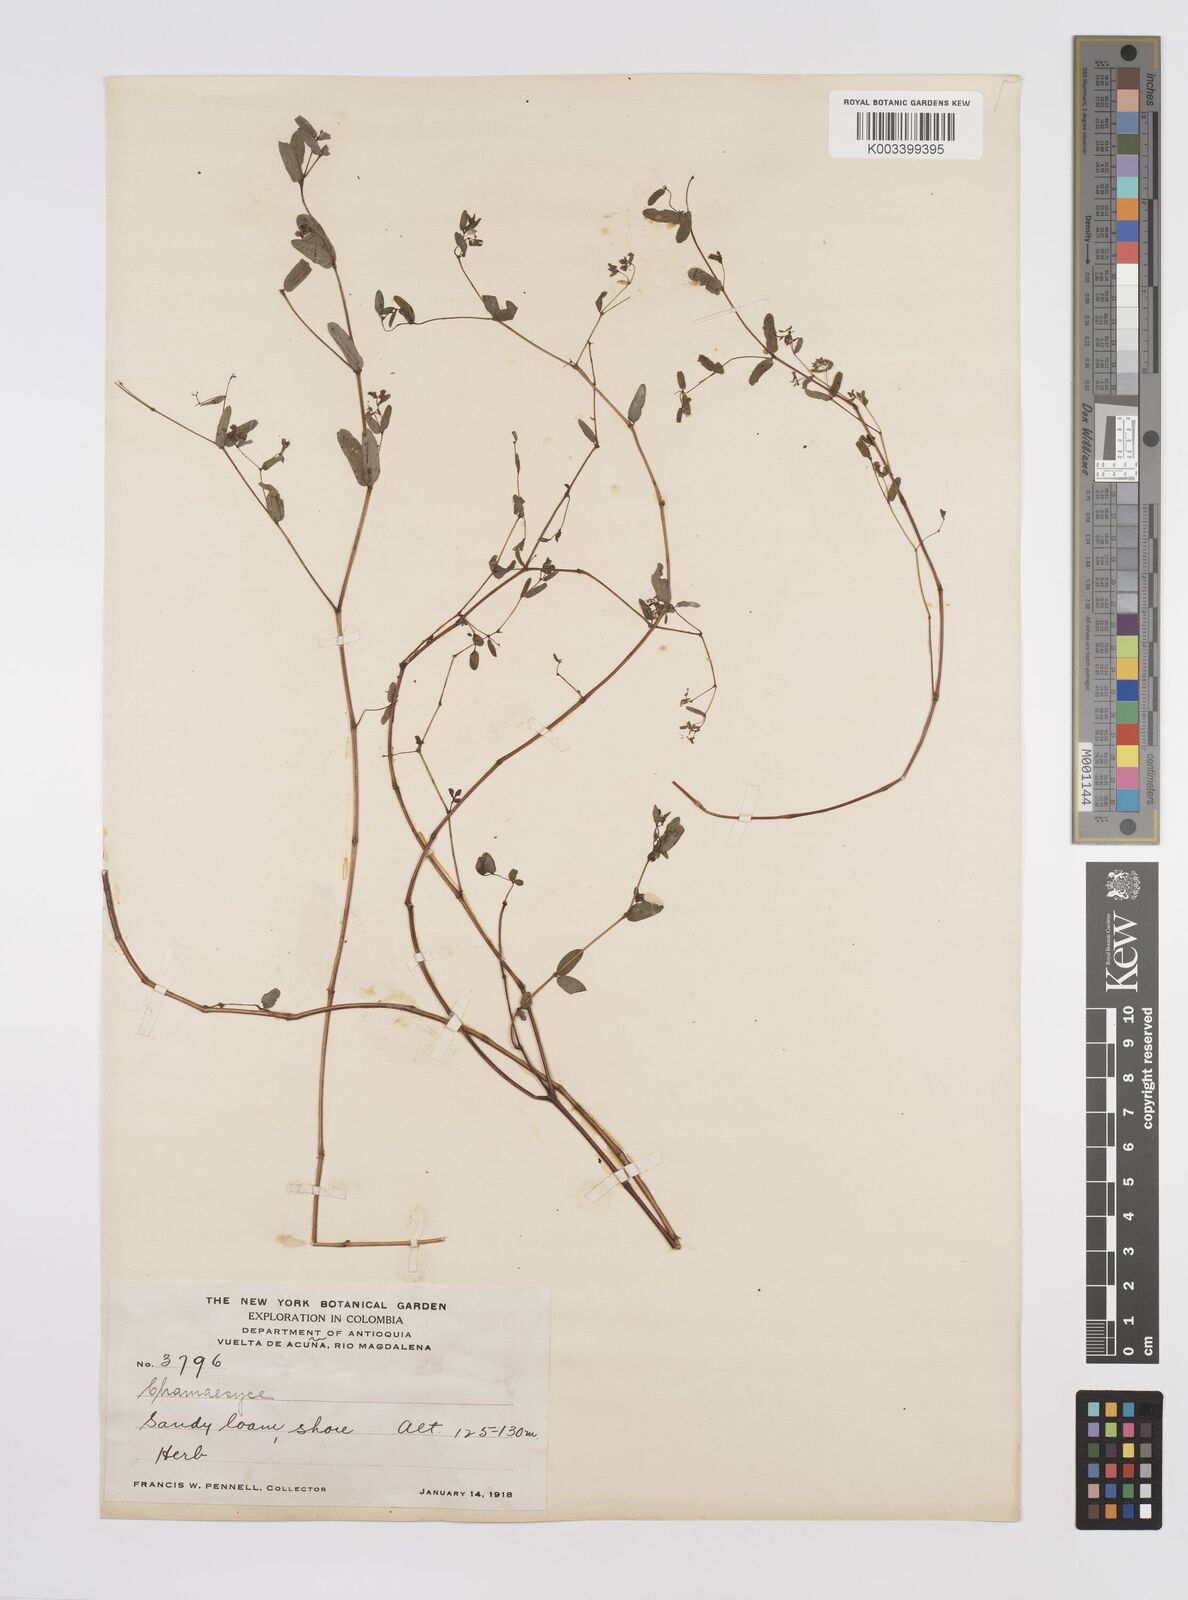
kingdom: Plantae
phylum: Tracheophyta
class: Magnoliopsida
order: Malpighiales
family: Euphorbiaceae
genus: Euphorbia
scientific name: Euphorbia
